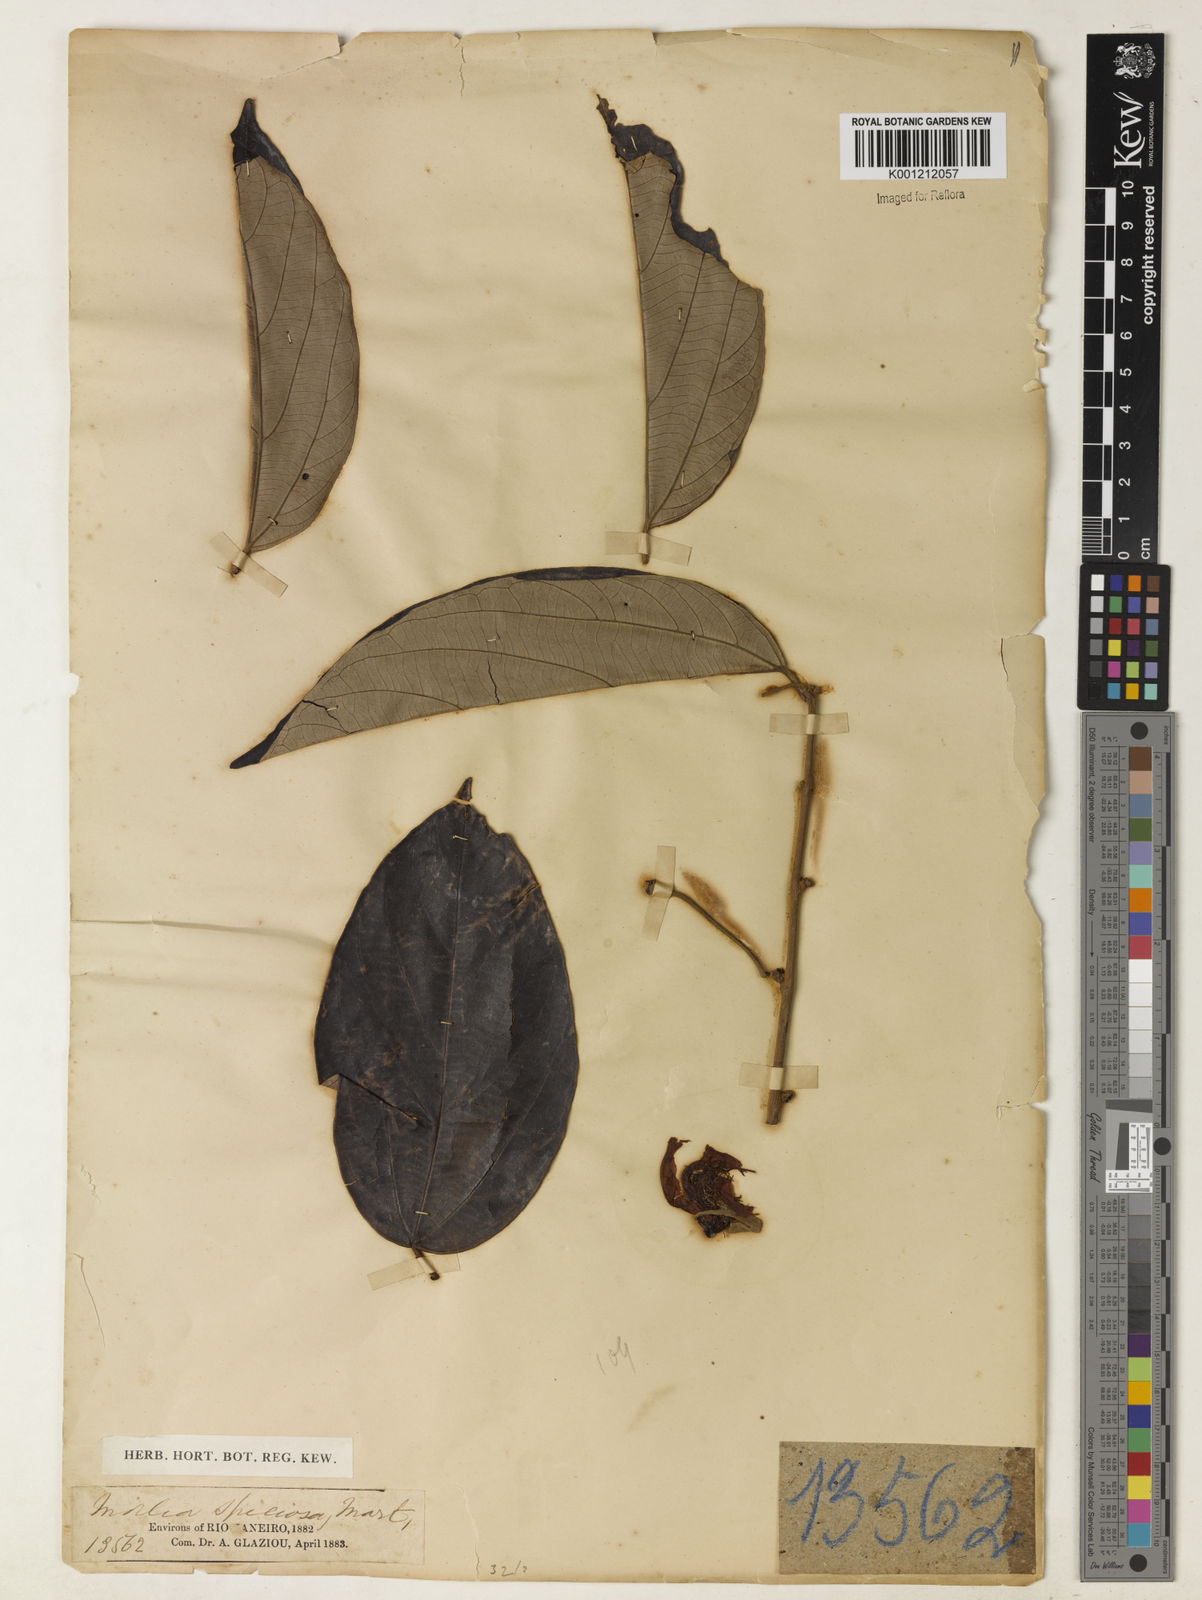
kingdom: Plantae
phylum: Tracheophyta
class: Magnoliopsida
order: Malvales
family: Malvaceae
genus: Mollia
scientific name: Mollia speciosa
